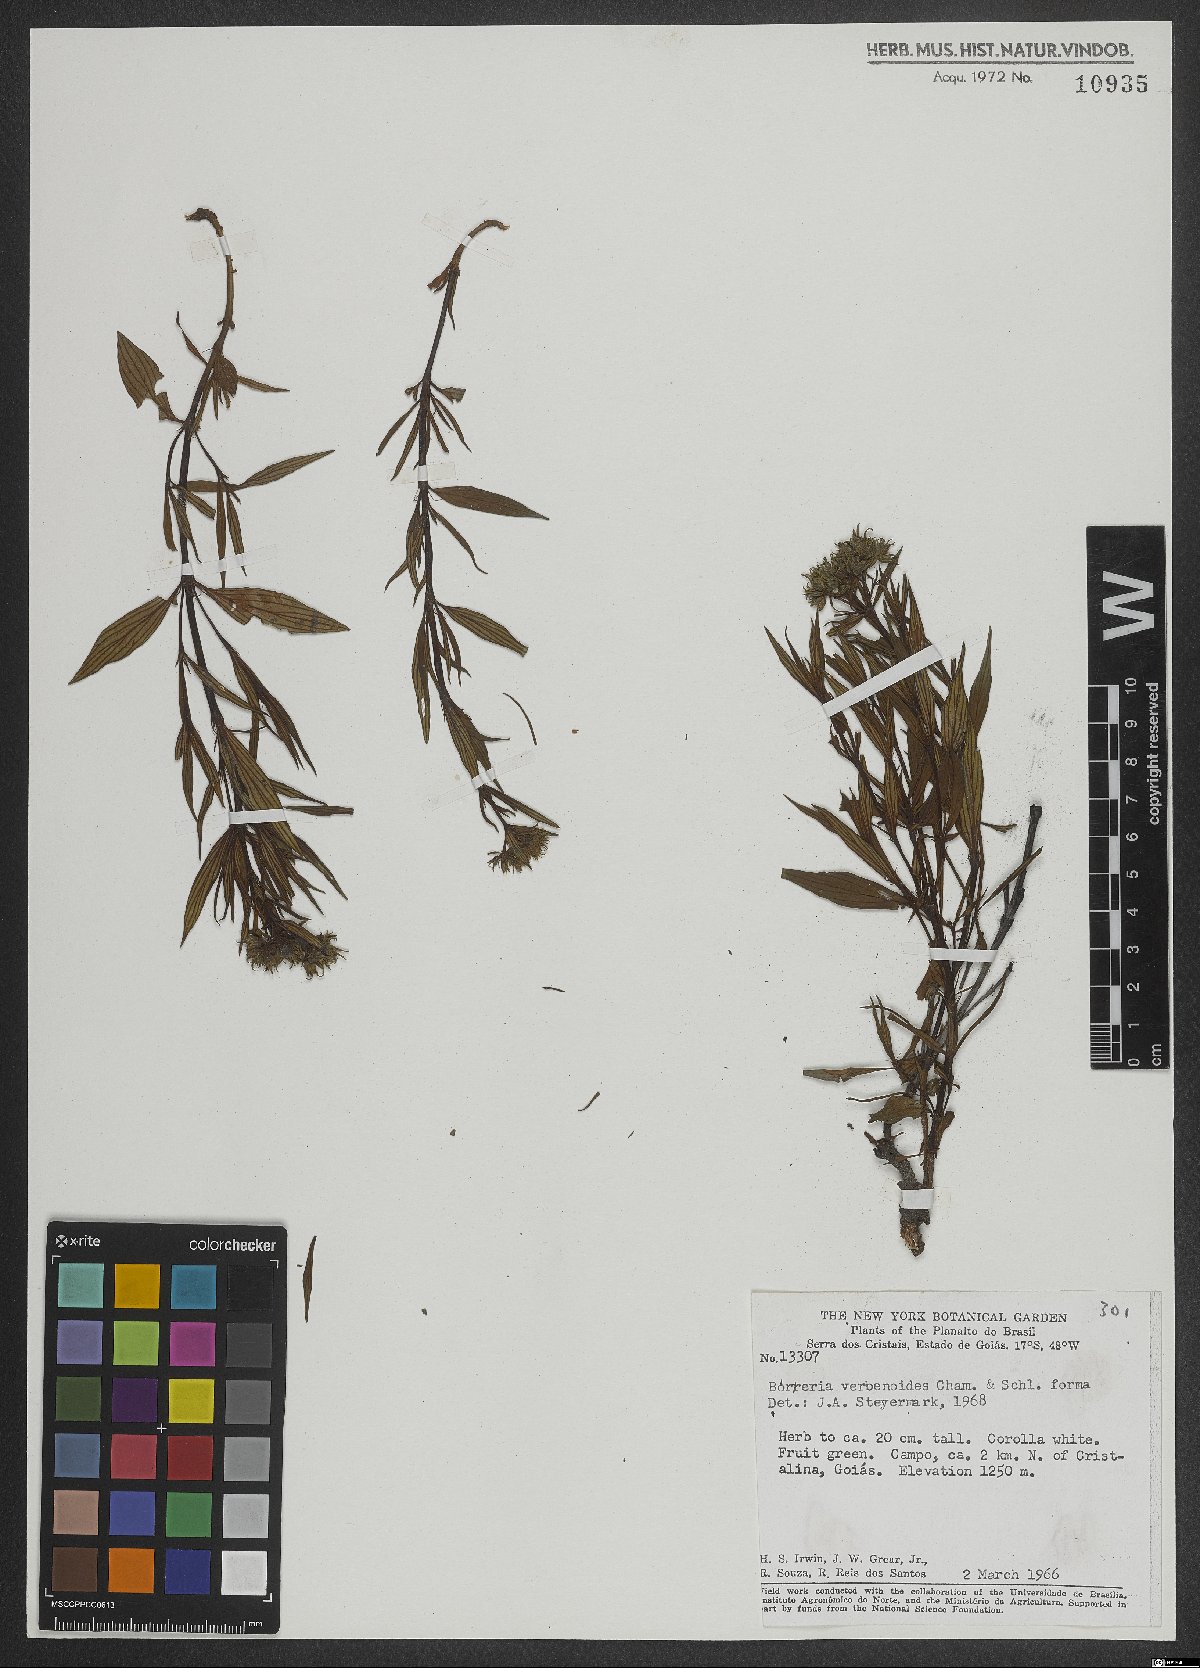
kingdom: Plantae
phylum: Tracheophyta
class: Magnoliopsida
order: Gentianales
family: Rubiaceae
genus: Galianthe
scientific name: Galianthe valerianoides
